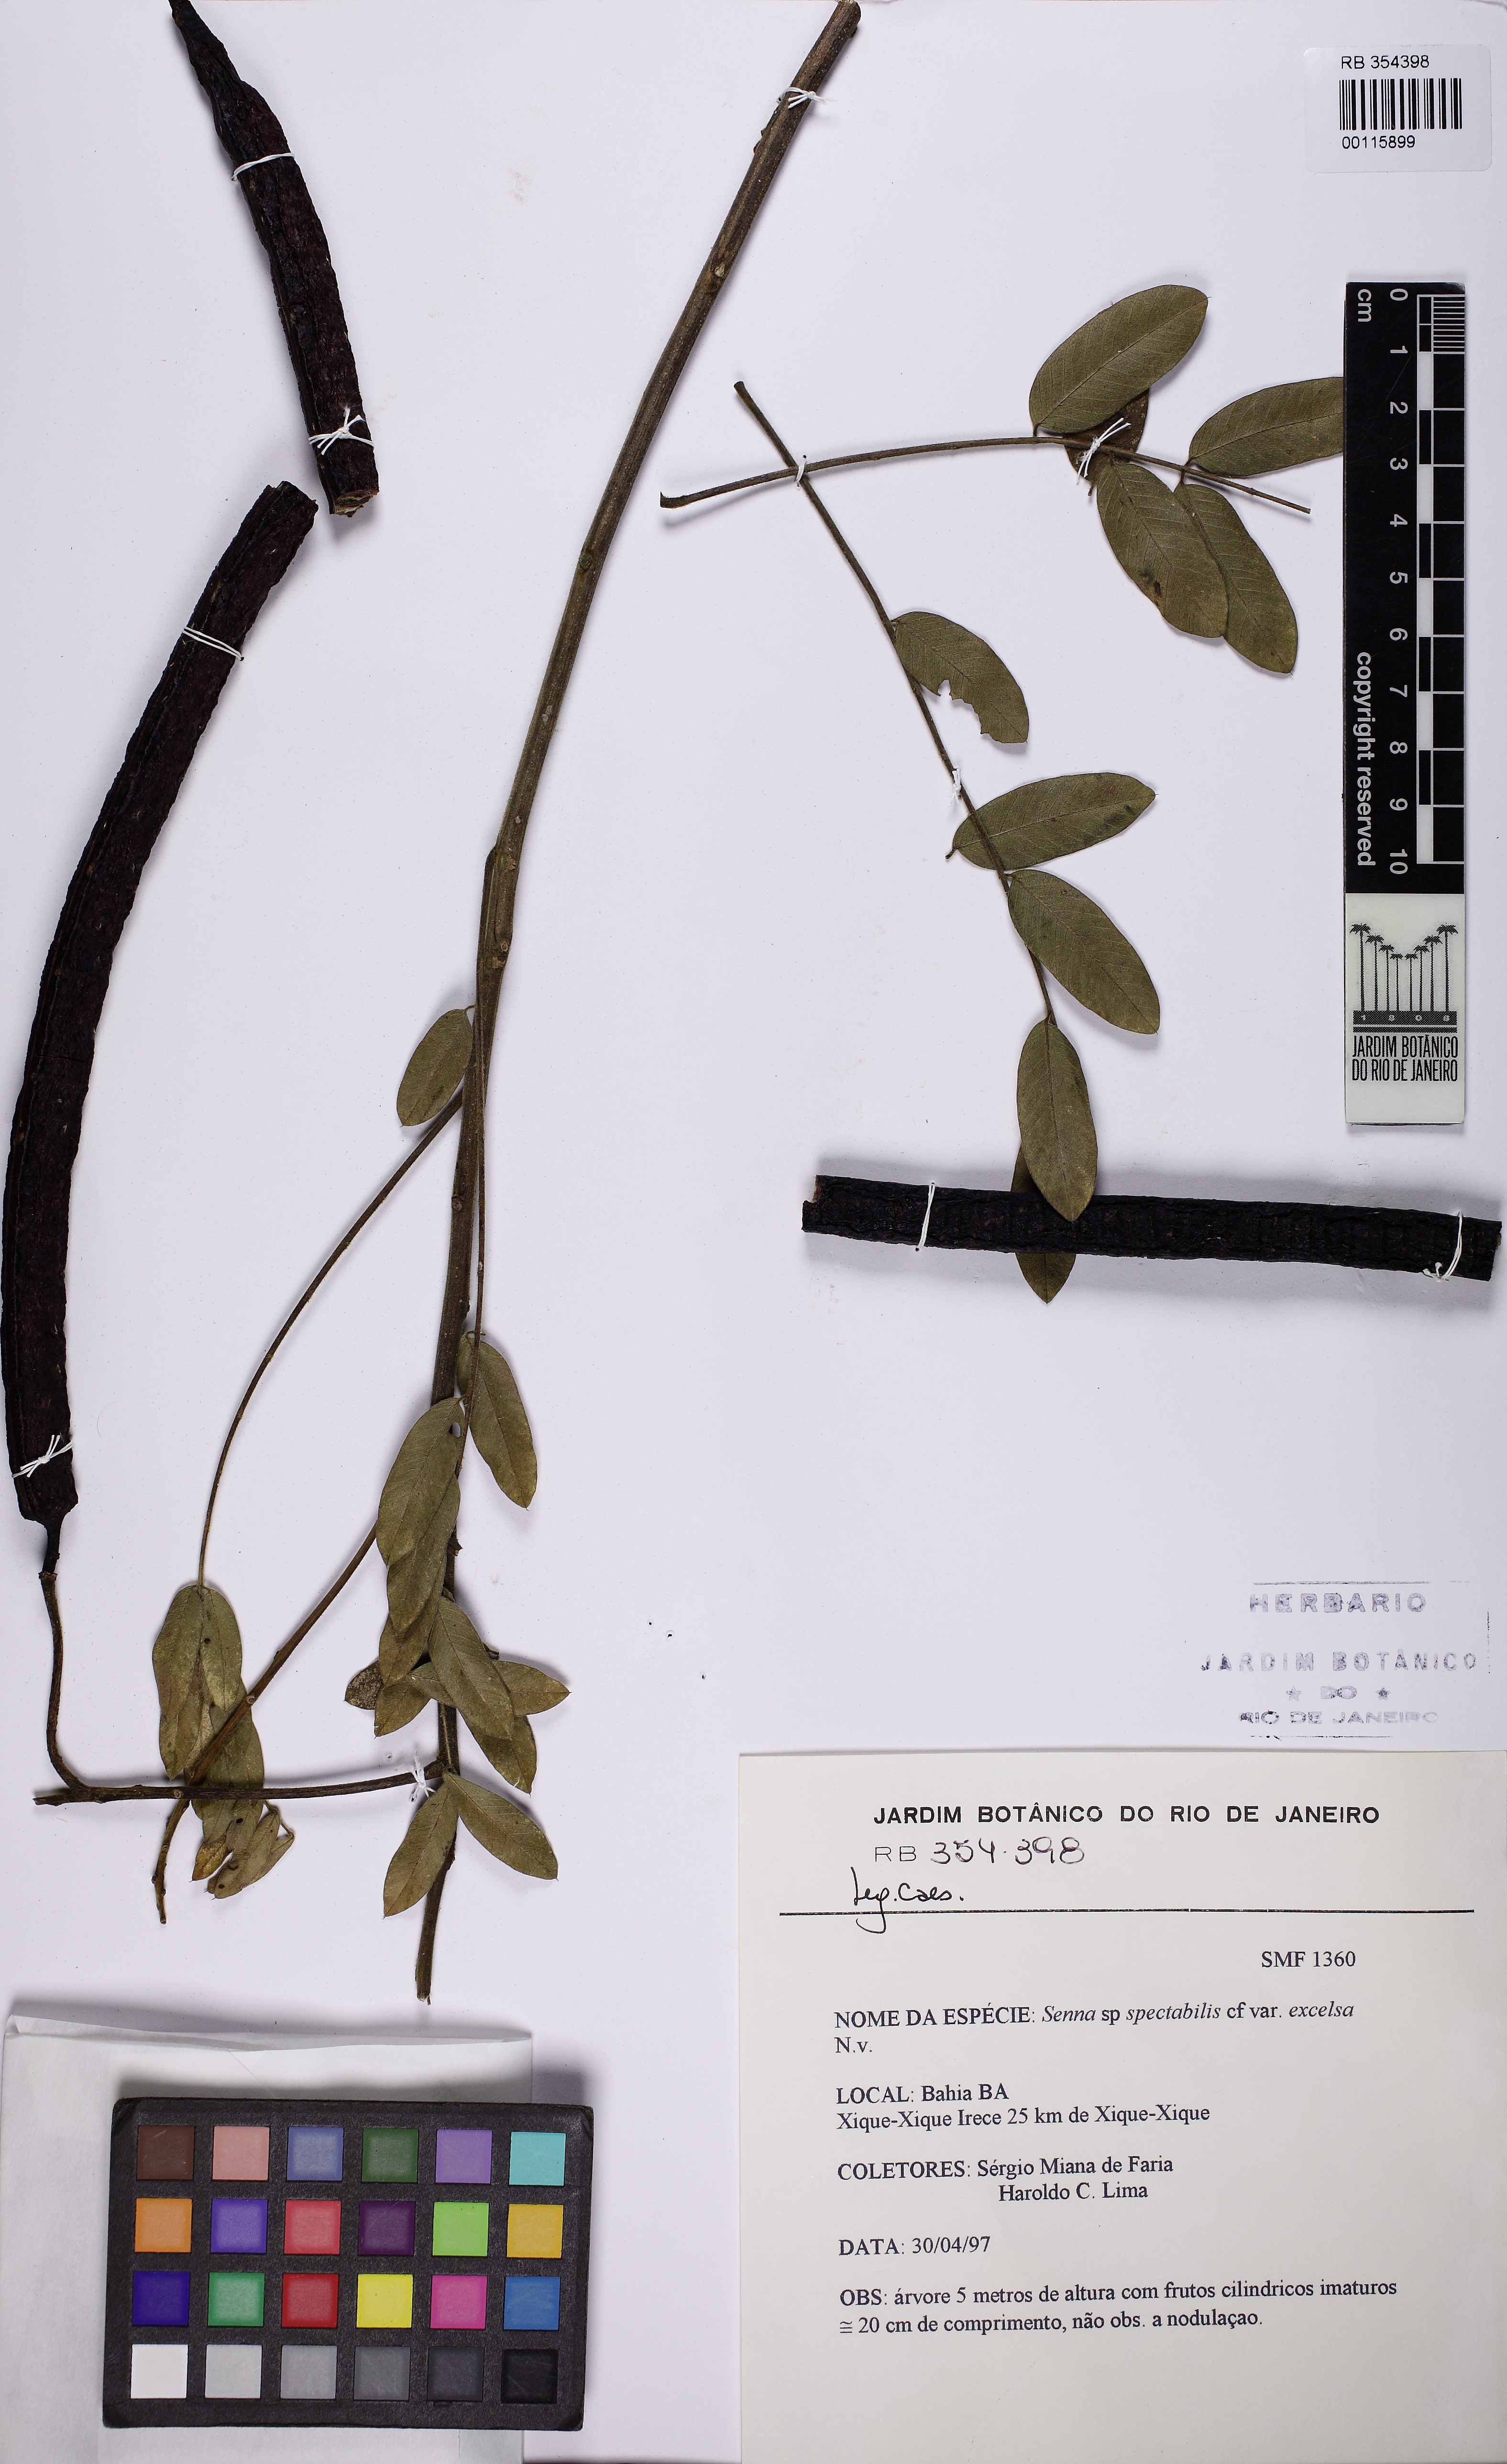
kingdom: Plantae
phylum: Tracheophyta
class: Magnoliopsida
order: Fabales
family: Fabaceae
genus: Senna
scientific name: Senna spectabilis
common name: Casia amarilla
